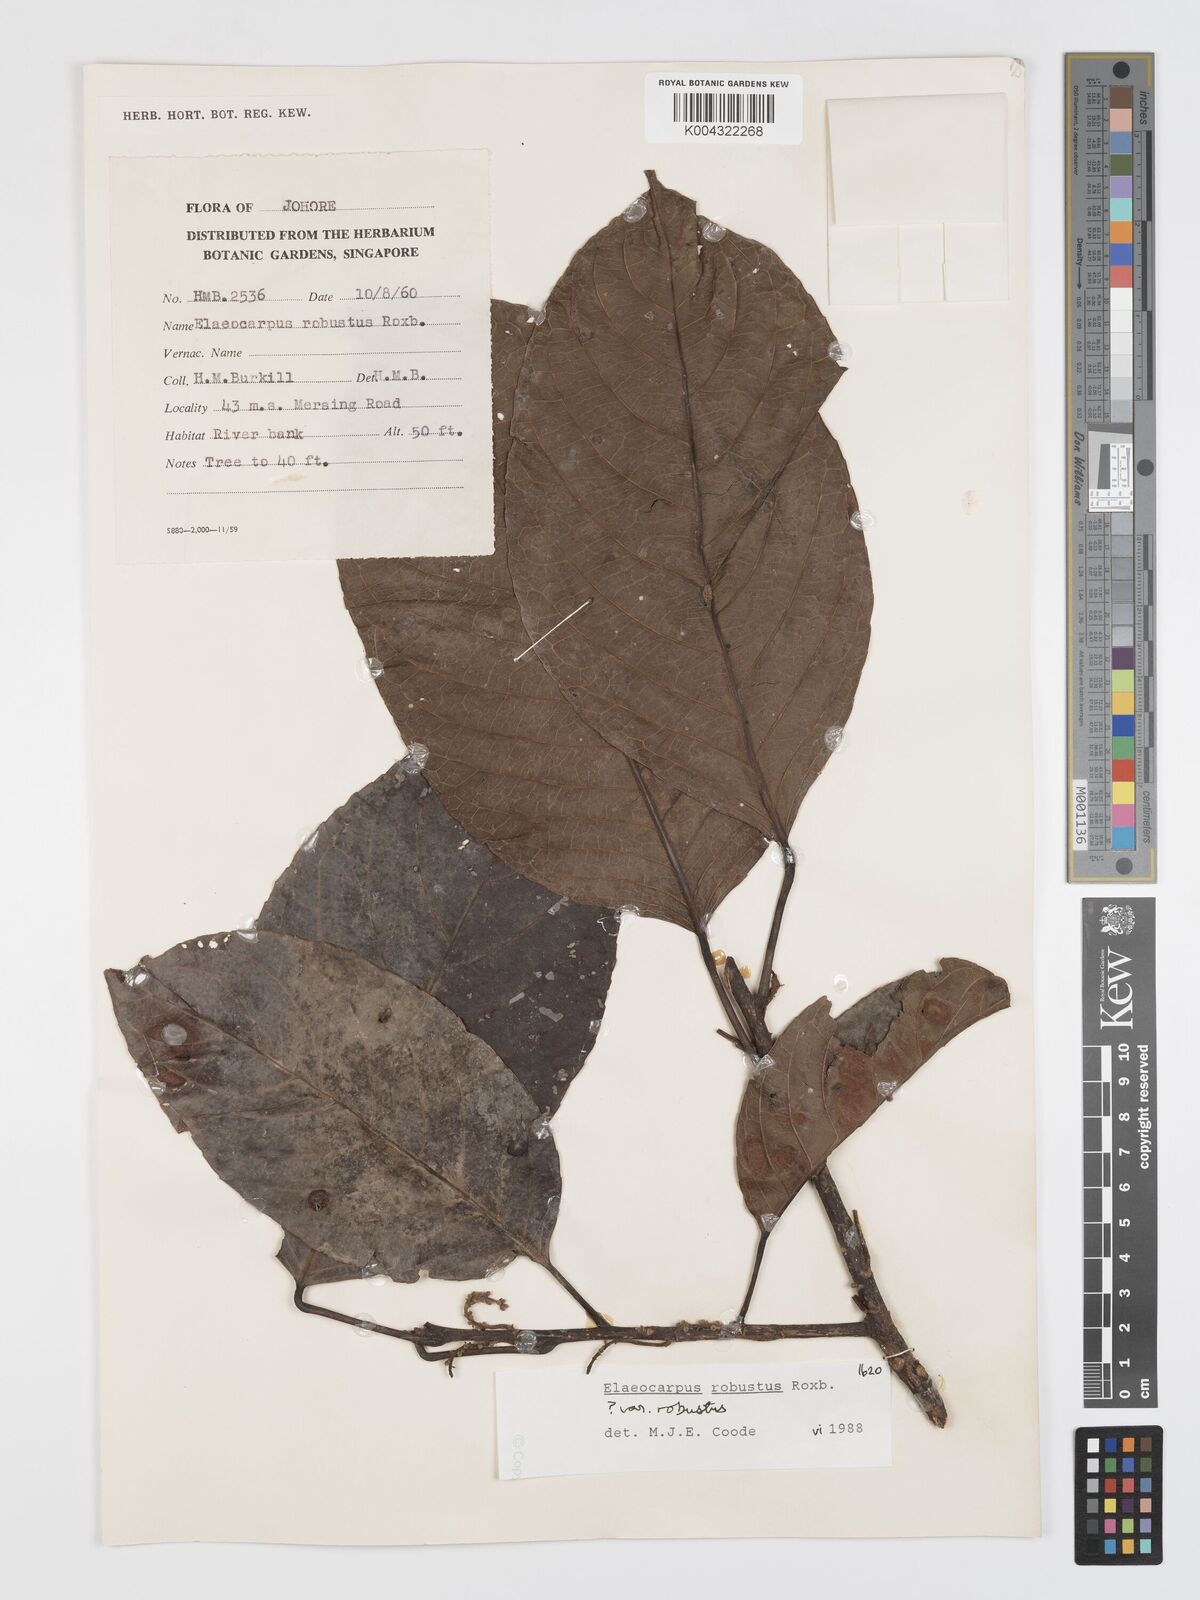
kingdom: Plantae
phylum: Tracheophyta
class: Magnoliopsida
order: Oxalidales
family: Elaeocarpaceae
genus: Elaeocarpus
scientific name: Elaeocarpus robustus
